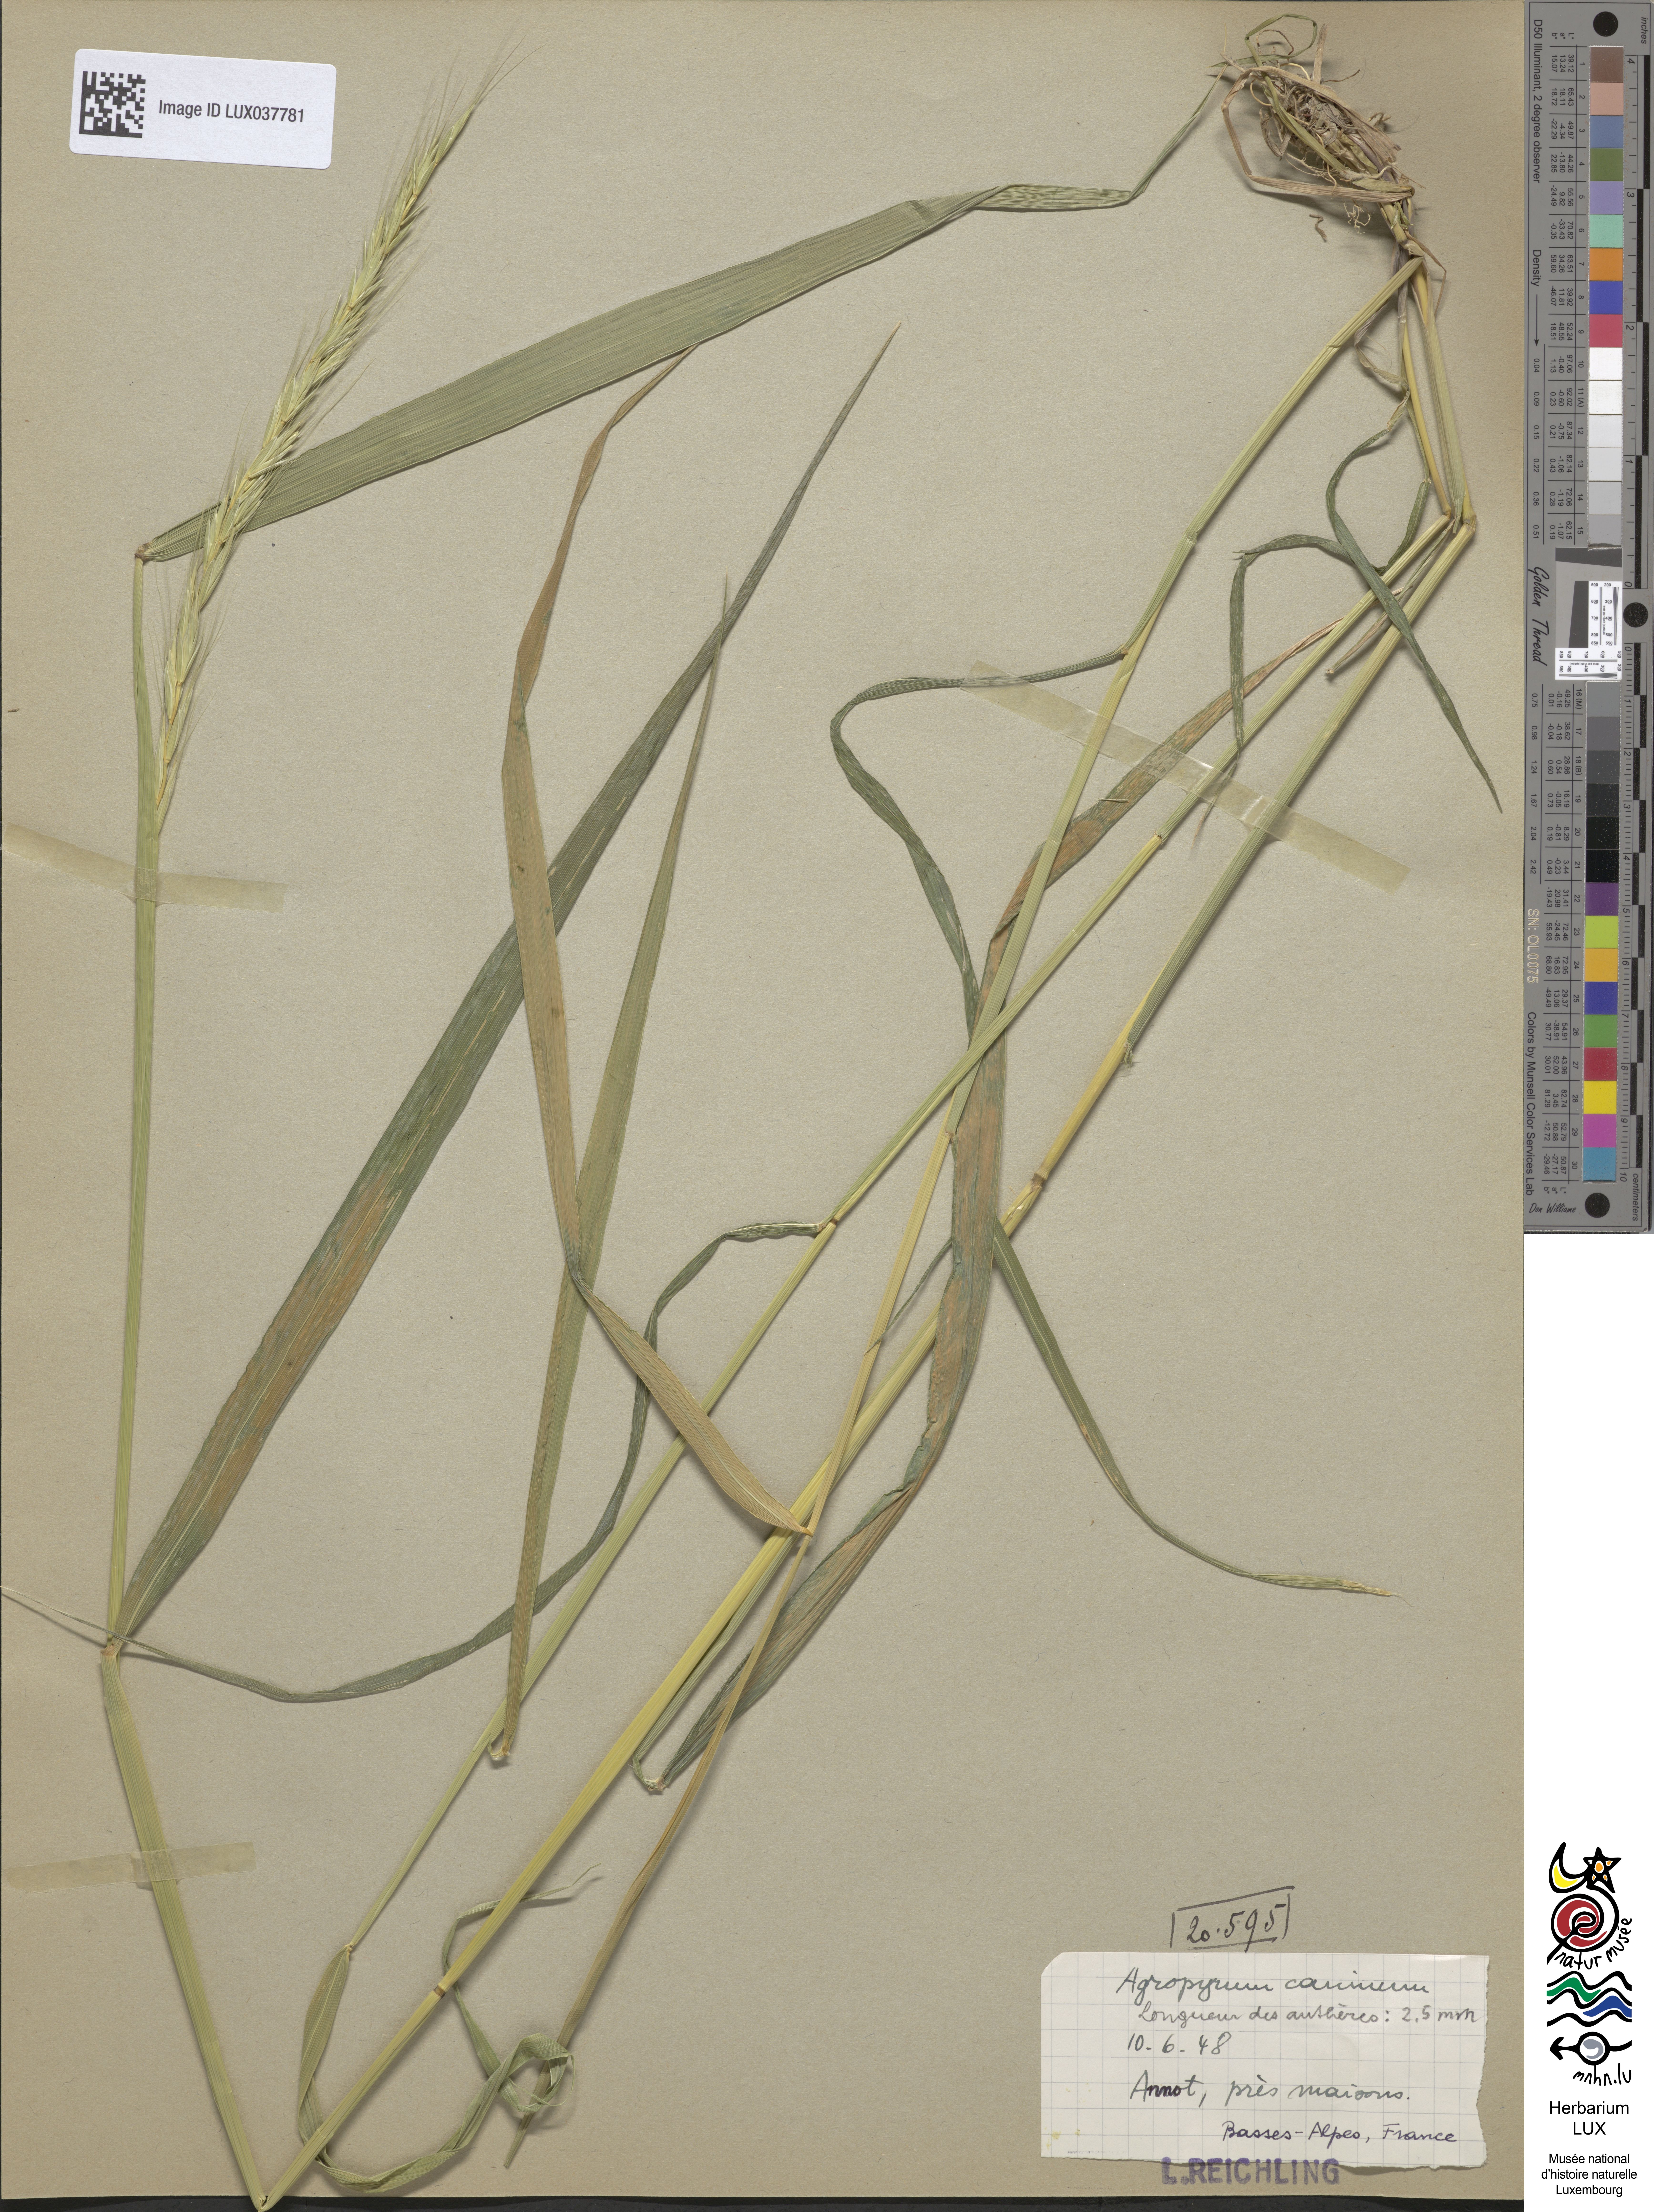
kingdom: Plantae
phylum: Tracheophyta
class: Liliopsida
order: Poales
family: Poaceae
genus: Elymus
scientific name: Elymus caninus
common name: Bearded couch
